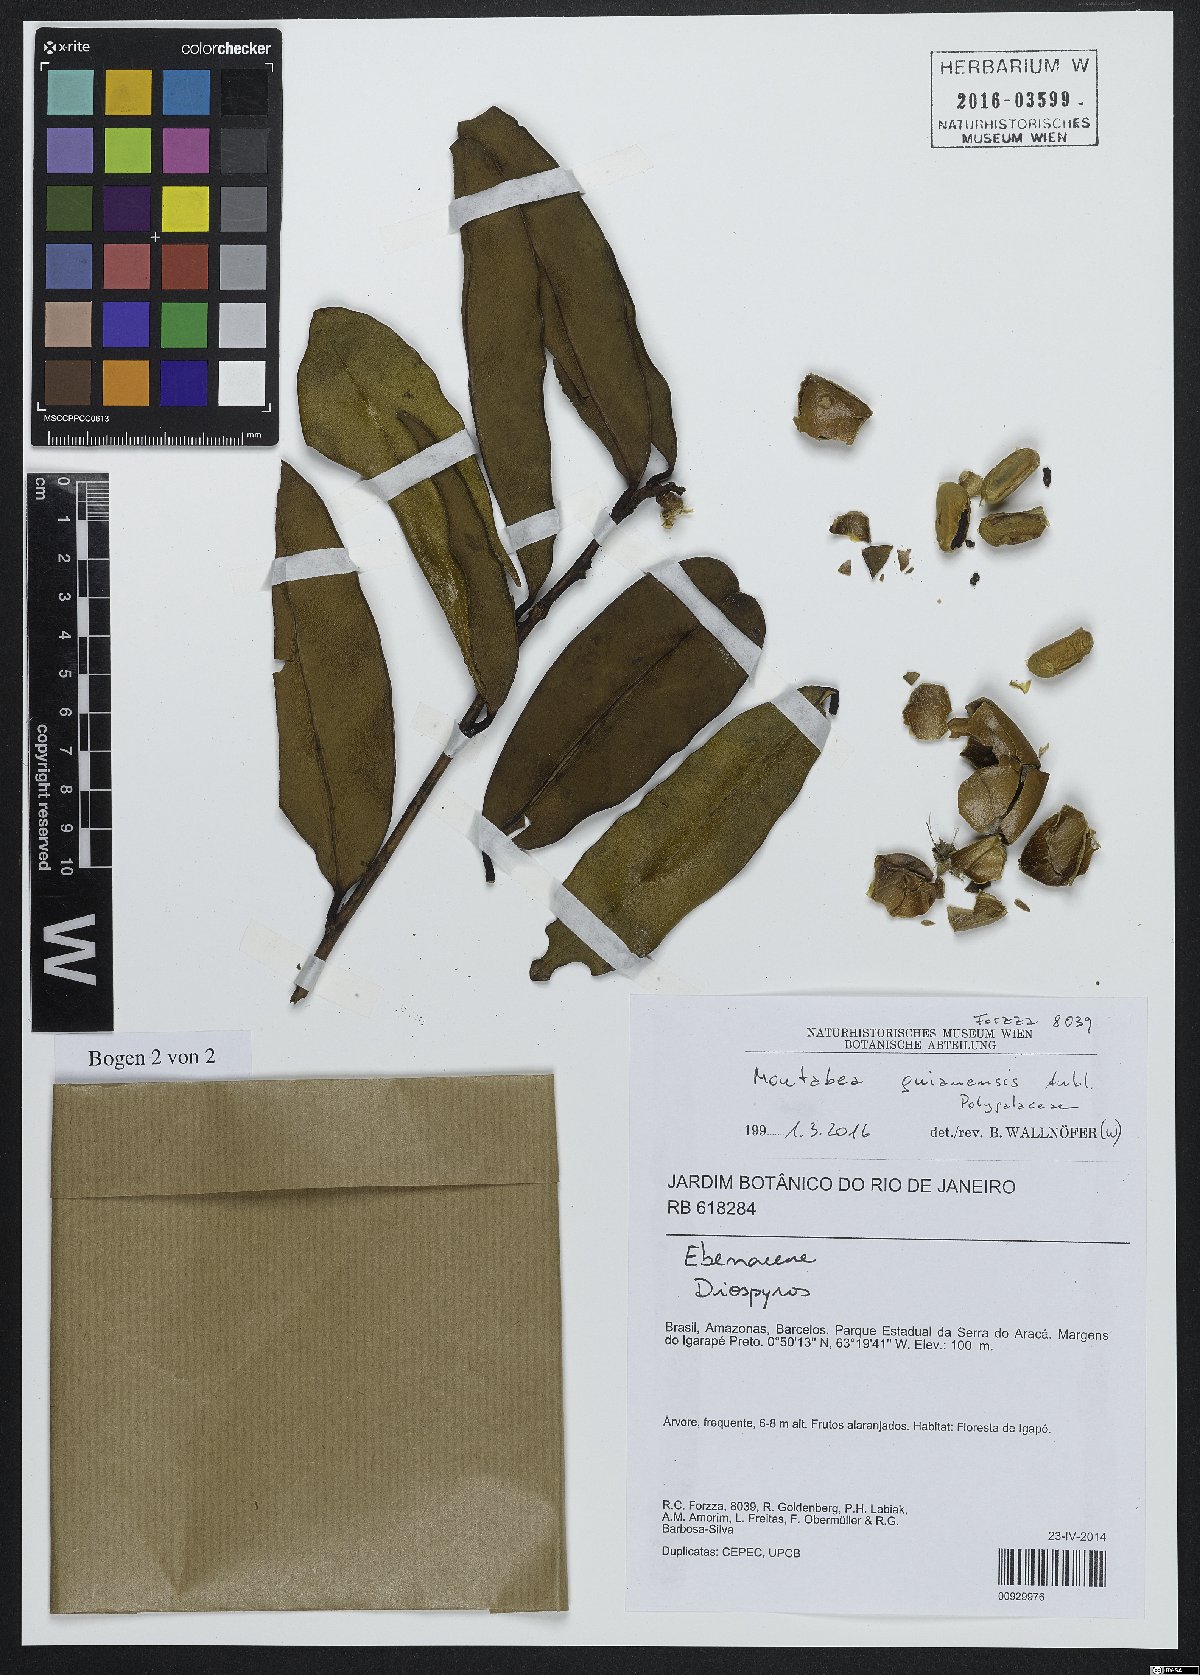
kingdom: Plantae
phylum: Tracheophyta
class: Magnoliopsida
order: Fabales
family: Polygalaceae
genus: Moutabea
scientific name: Moutabea guianensis
